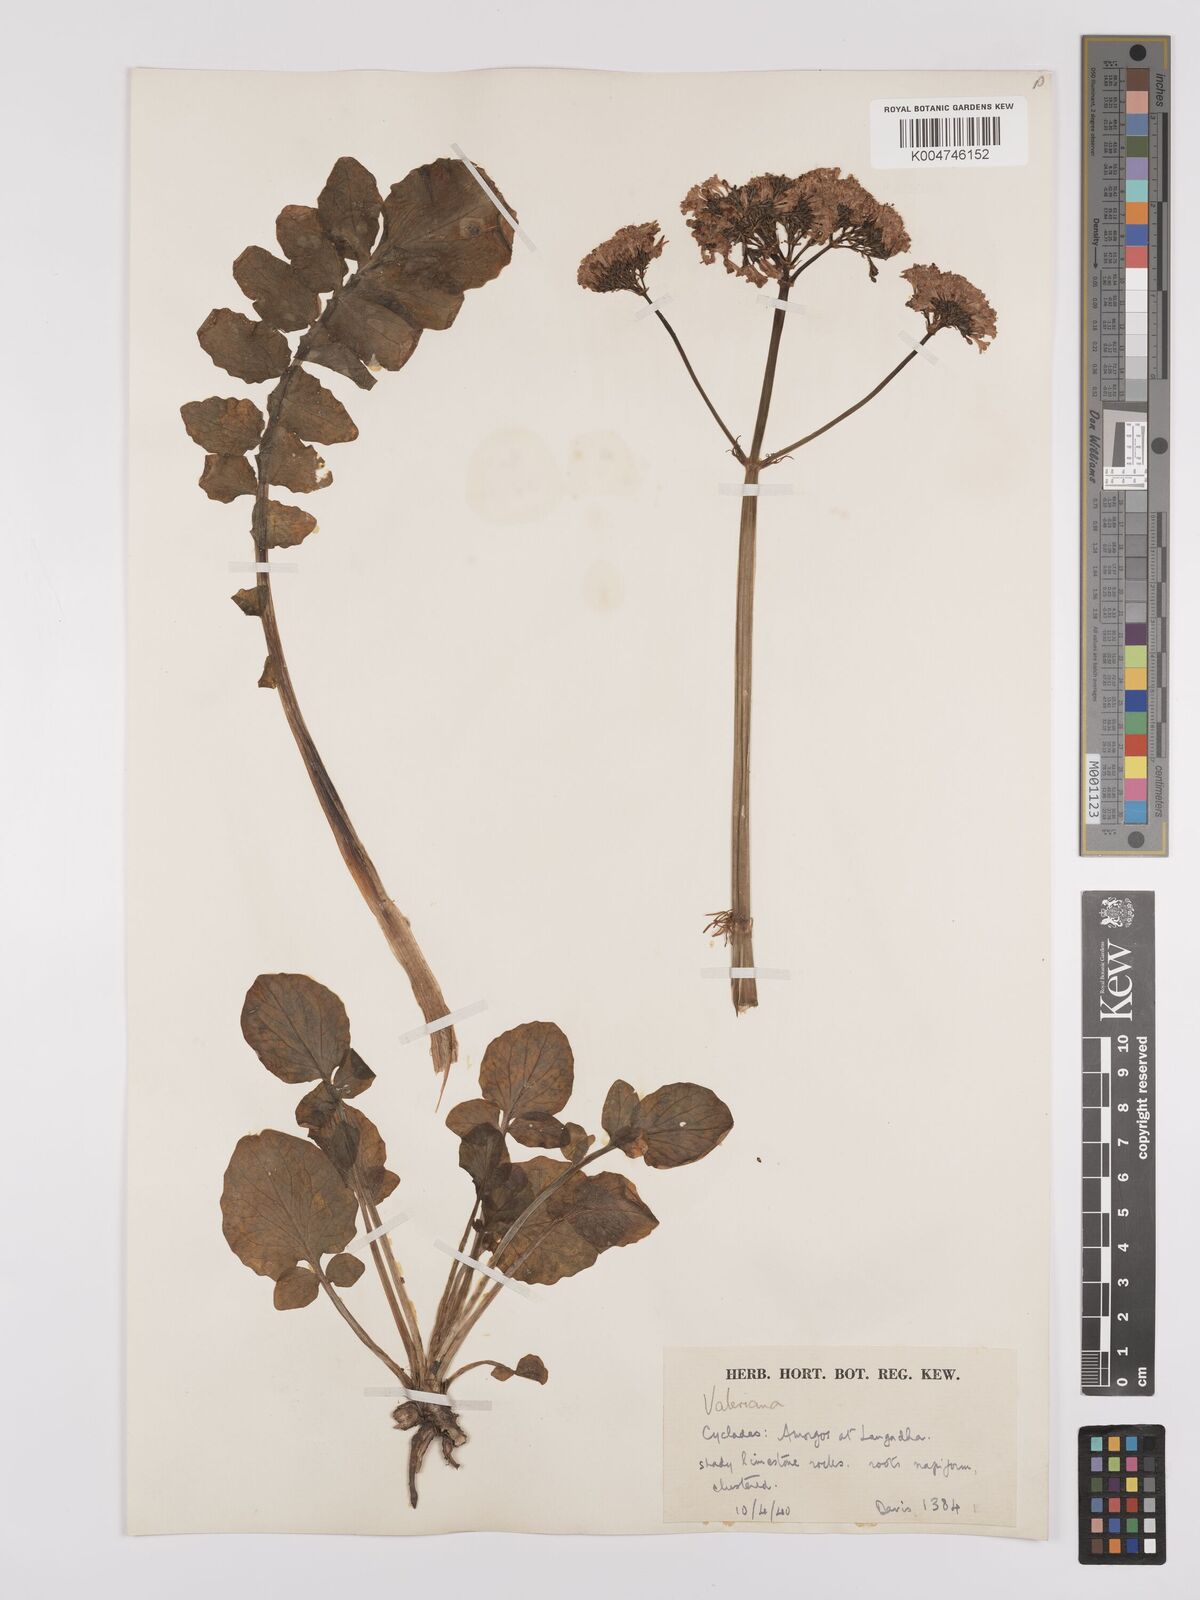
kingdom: Plantae
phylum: Tracheophyta
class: Magnoliopsida
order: Dipsacales
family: Caprifoliaceae
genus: Valeriana
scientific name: Valeriana dioscoridis
